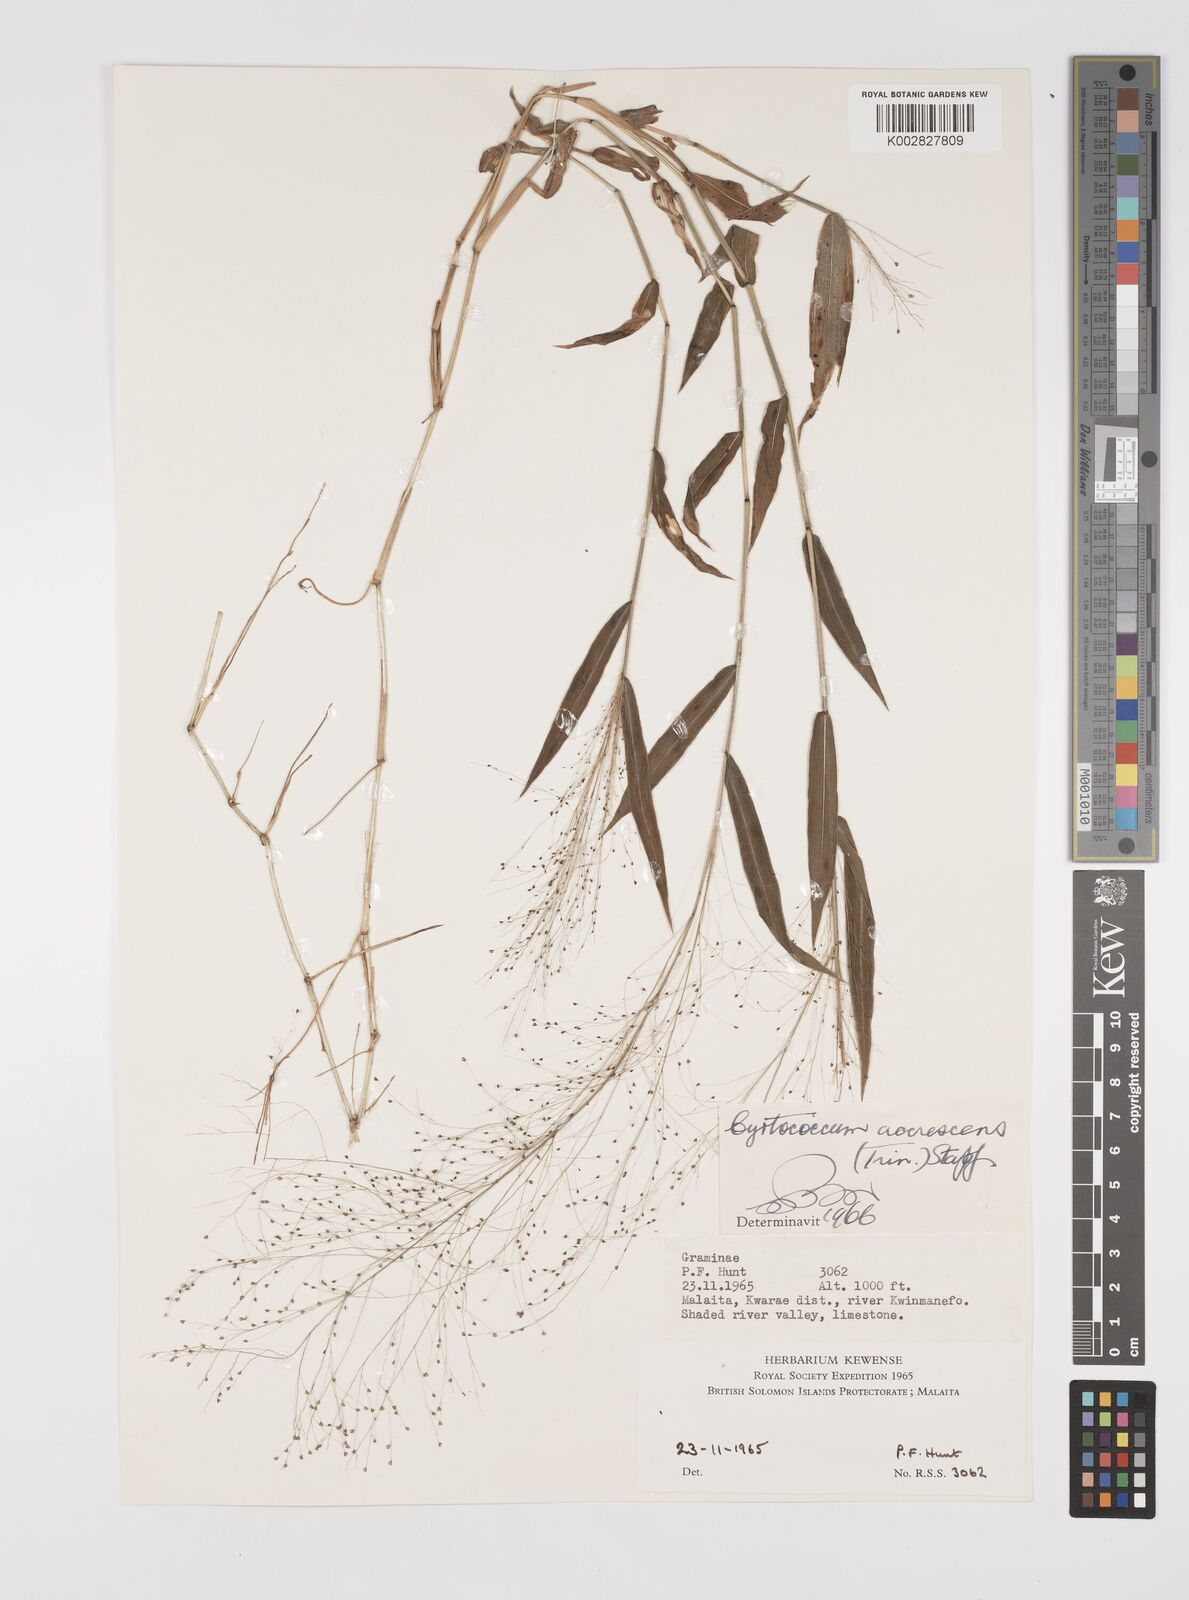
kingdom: Plantae
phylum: Tracheophyta
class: Liliopsida
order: Poales
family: Poaceae
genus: Cyrtococcum
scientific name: Cyrtococcum accrescens
